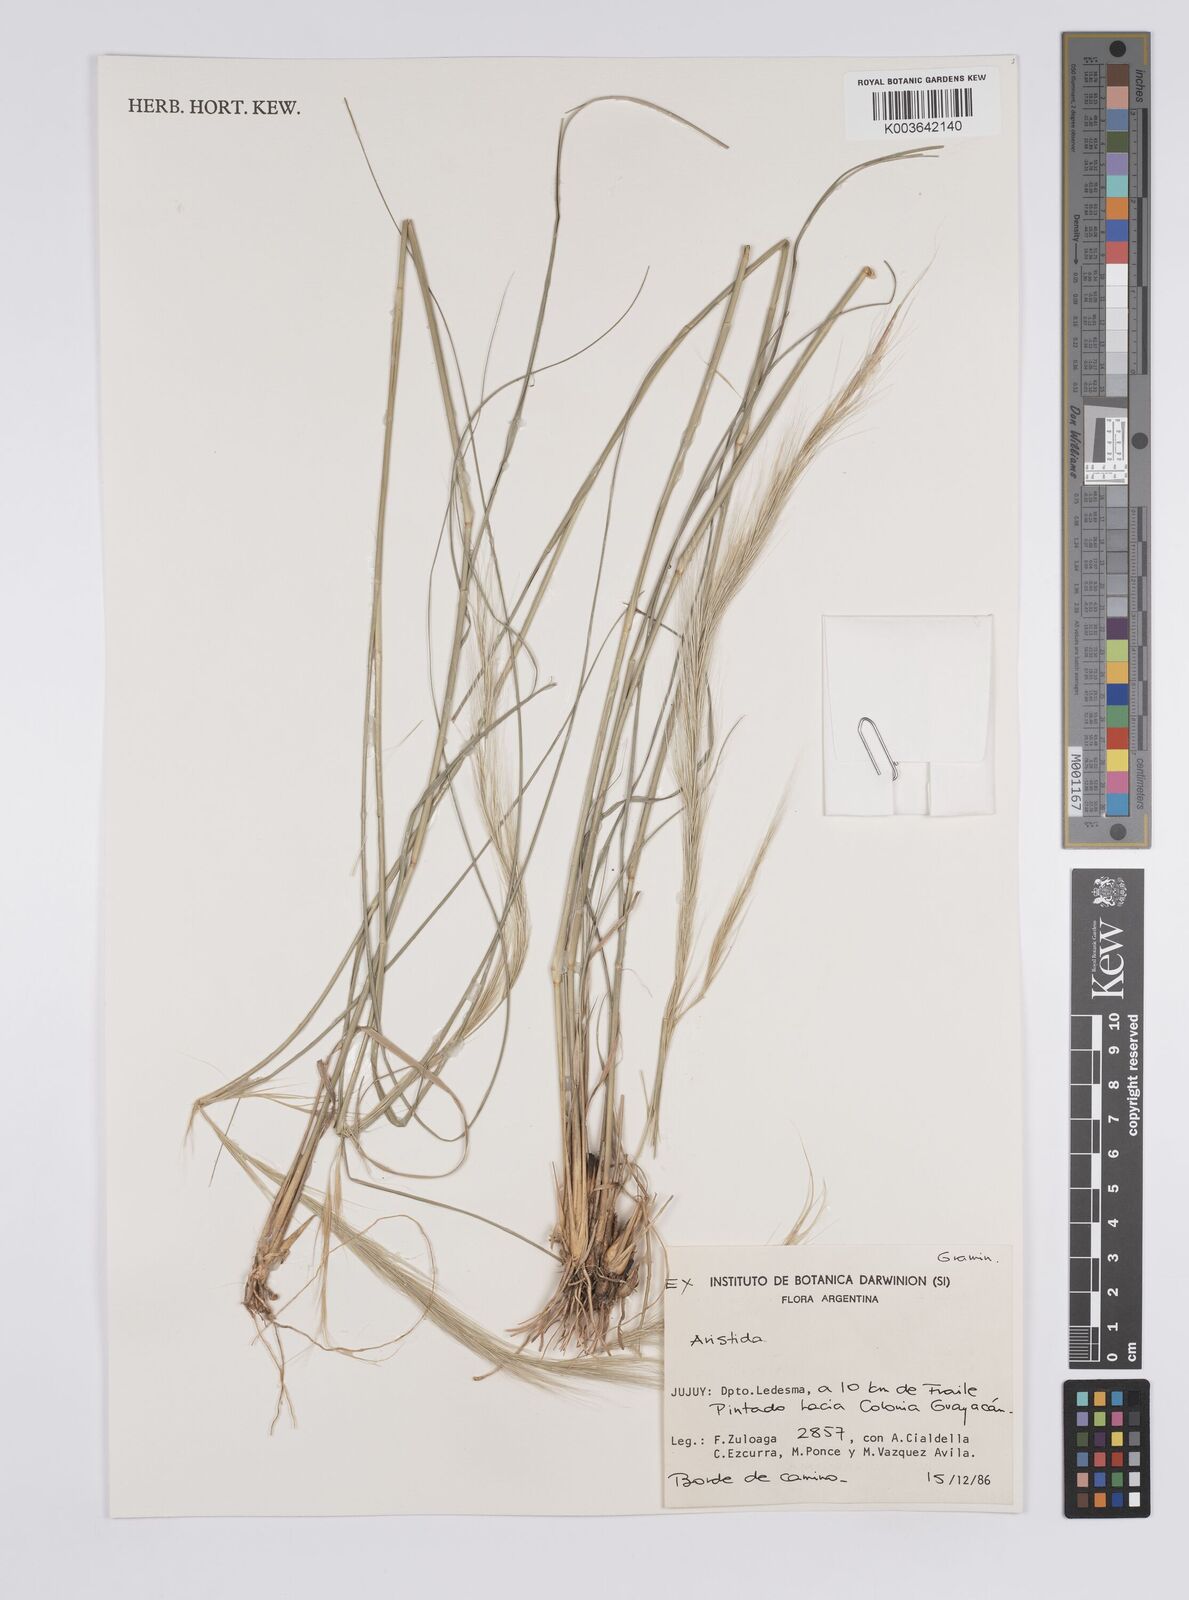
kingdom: Plantae
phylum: Tracheophyta
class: Liliopsida
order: Poales
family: Poaceae
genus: Aristida
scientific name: Aristida
